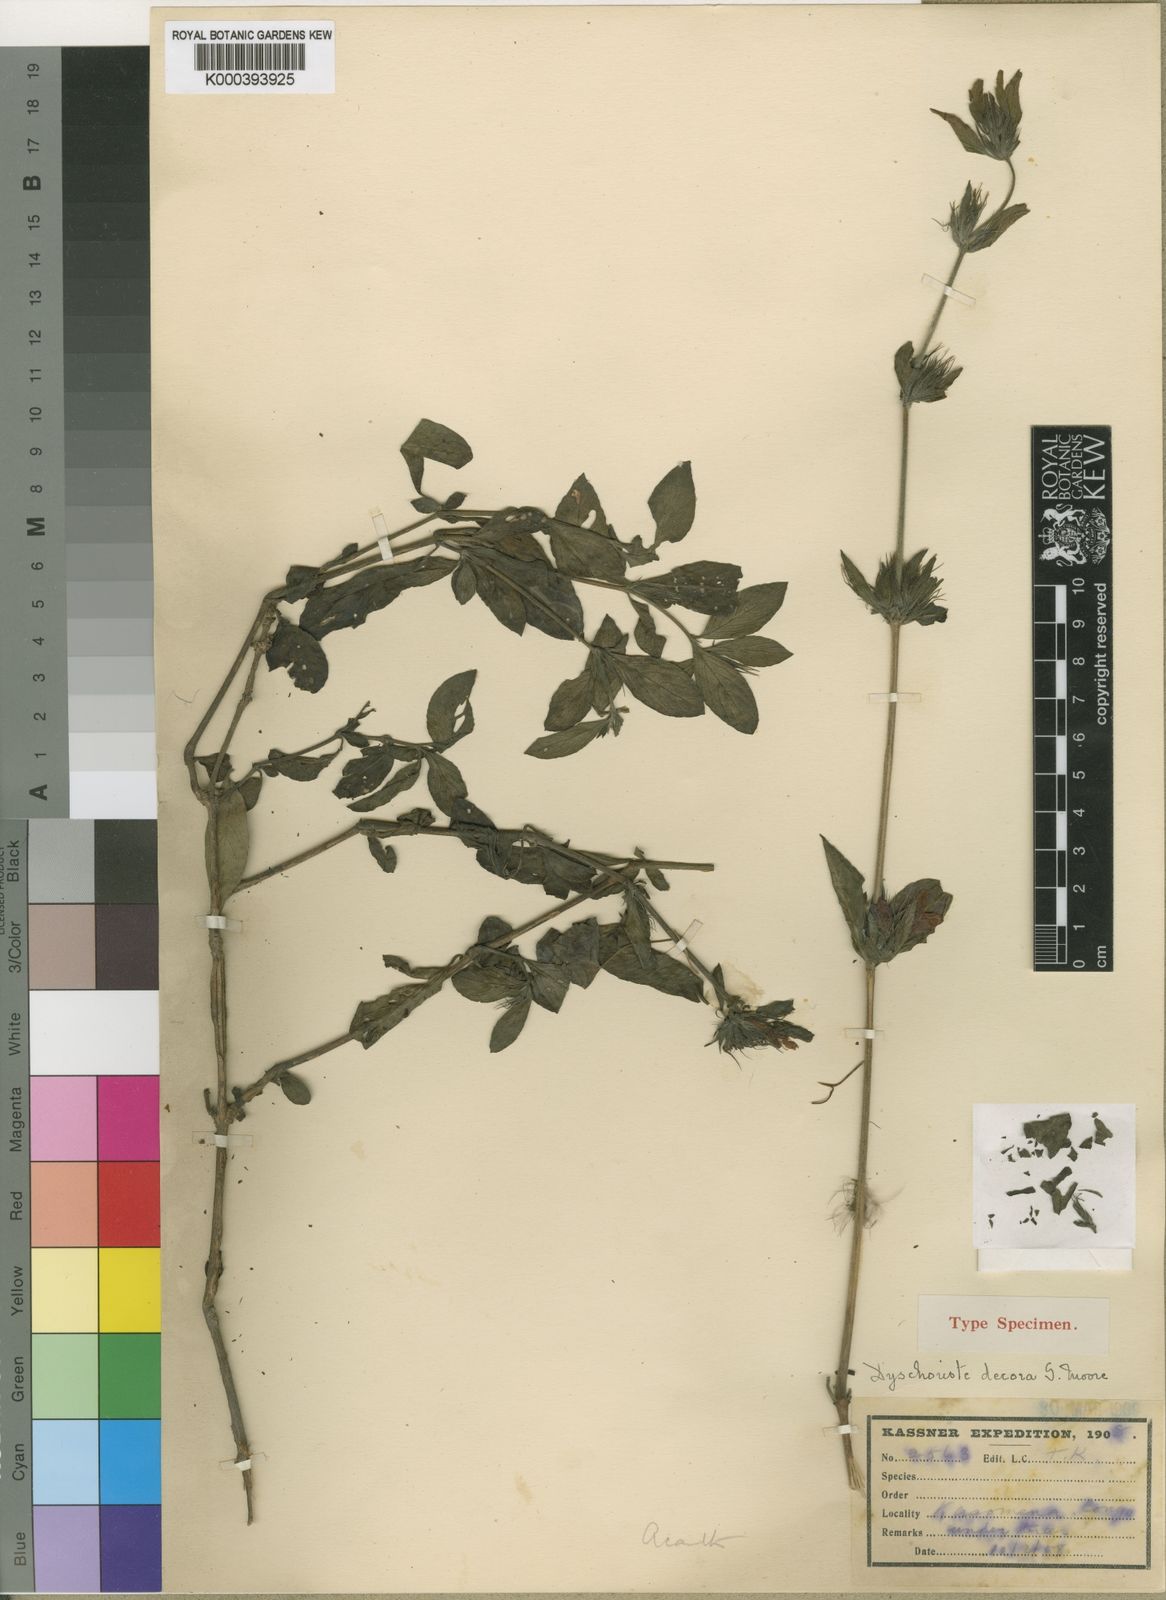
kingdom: Plantae
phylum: Tracheophyta
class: Magnoliopsida
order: Lamiales
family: Acanthaceae
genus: Dyschoriste
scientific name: Dyschoriste trichocalyx
